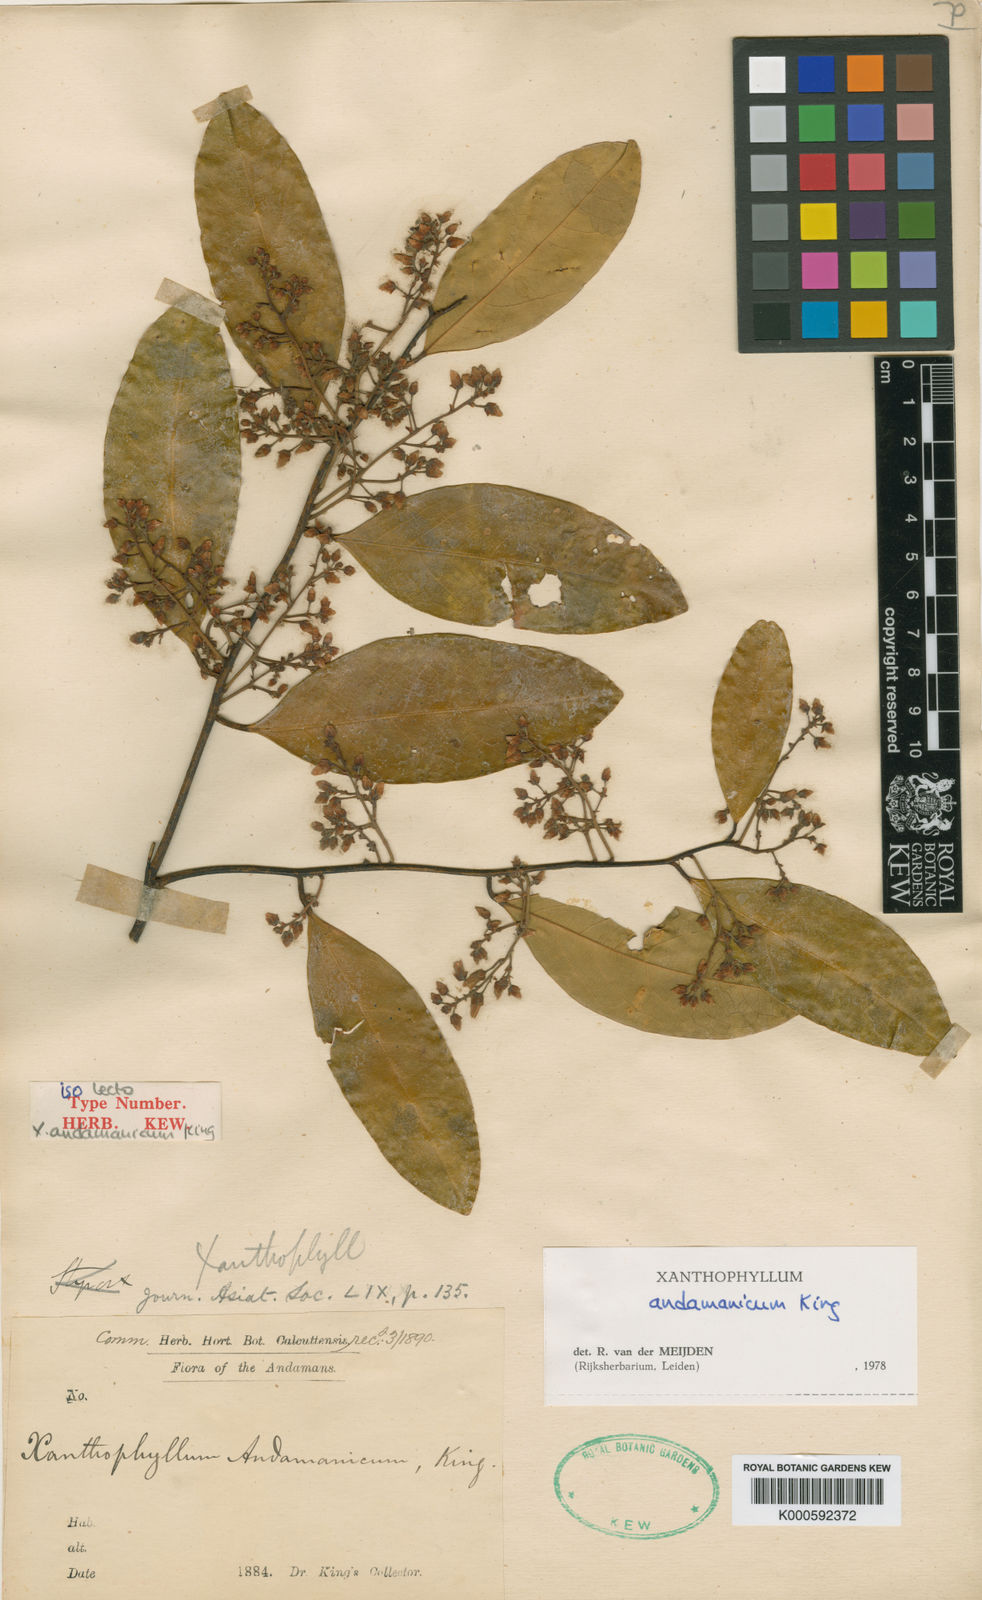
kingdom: Plantae
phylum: Tracheophyta
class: Magnoliopsida
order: Fabales
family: Polygalaceae
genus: Xanthophyllum
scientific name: Xanthophyllum andamanicum
